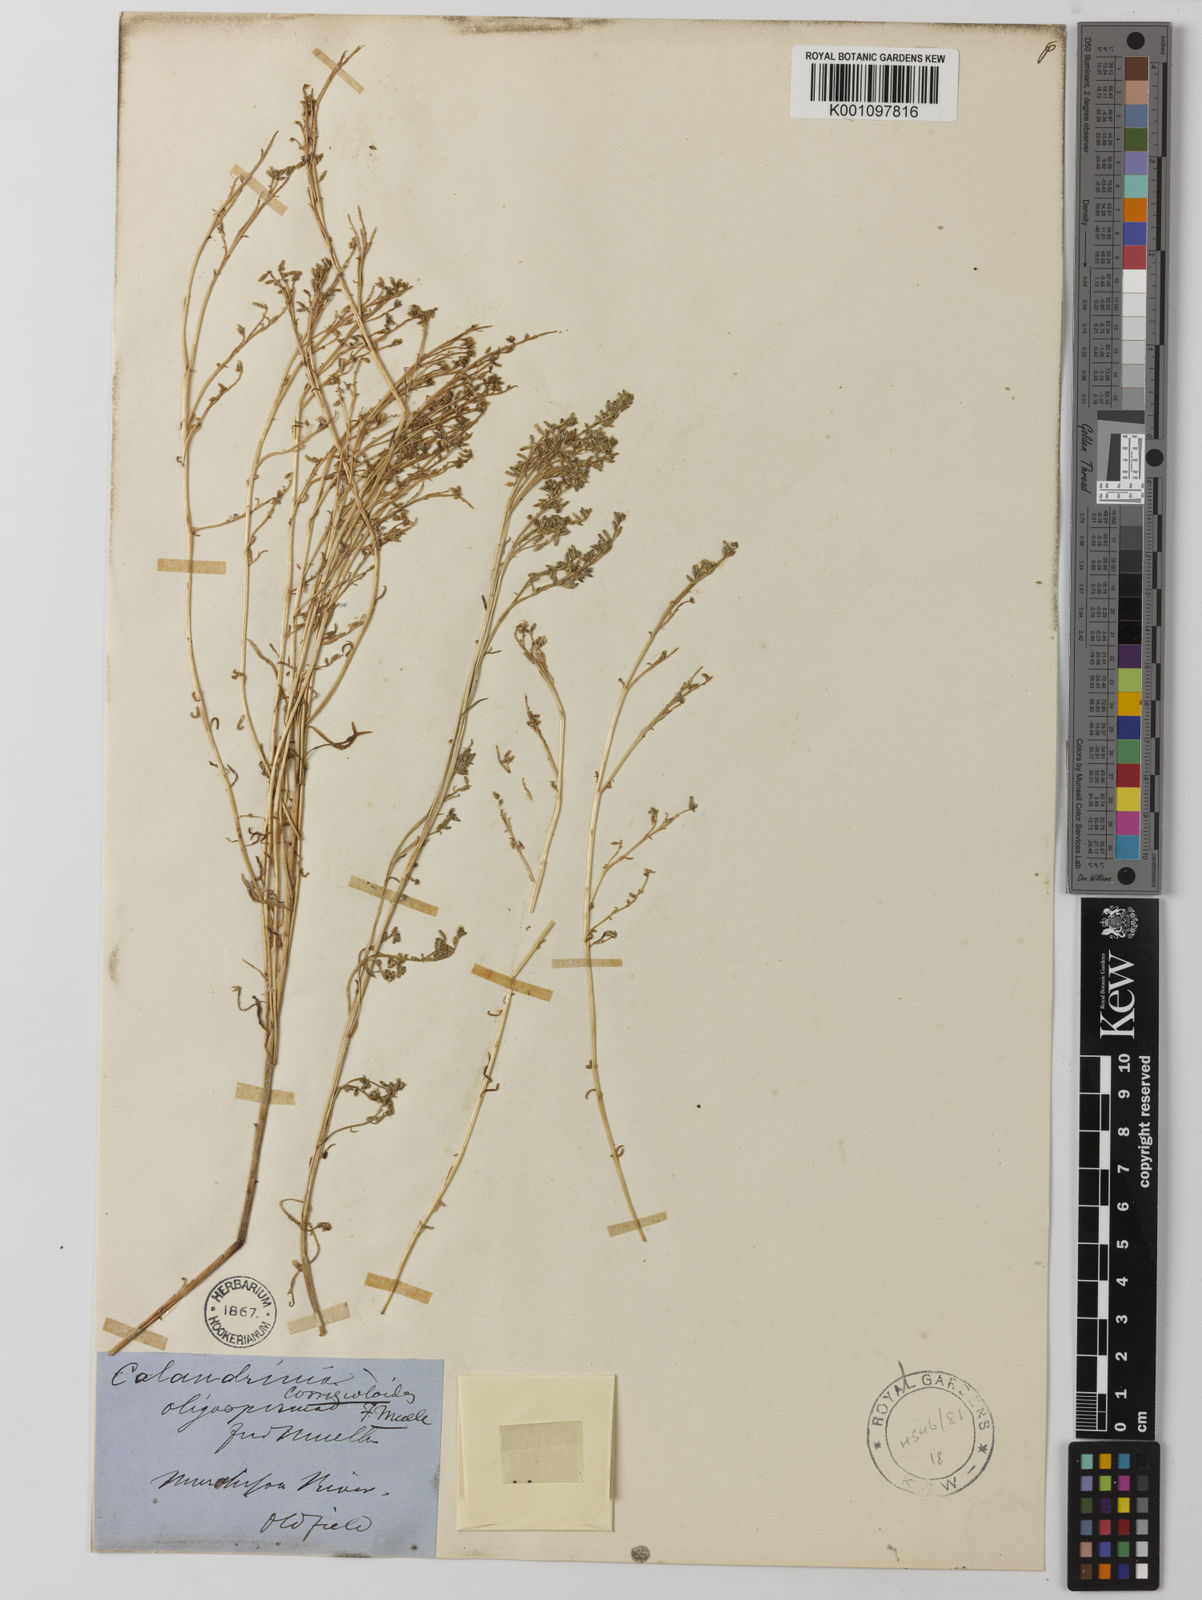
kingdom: Plantae
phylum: Tracheophyta
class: Magnoliopsida
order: Caryophyllales
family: Montiaceae
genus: Rumicastrum
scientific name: Rumicastrum corrigioloides
